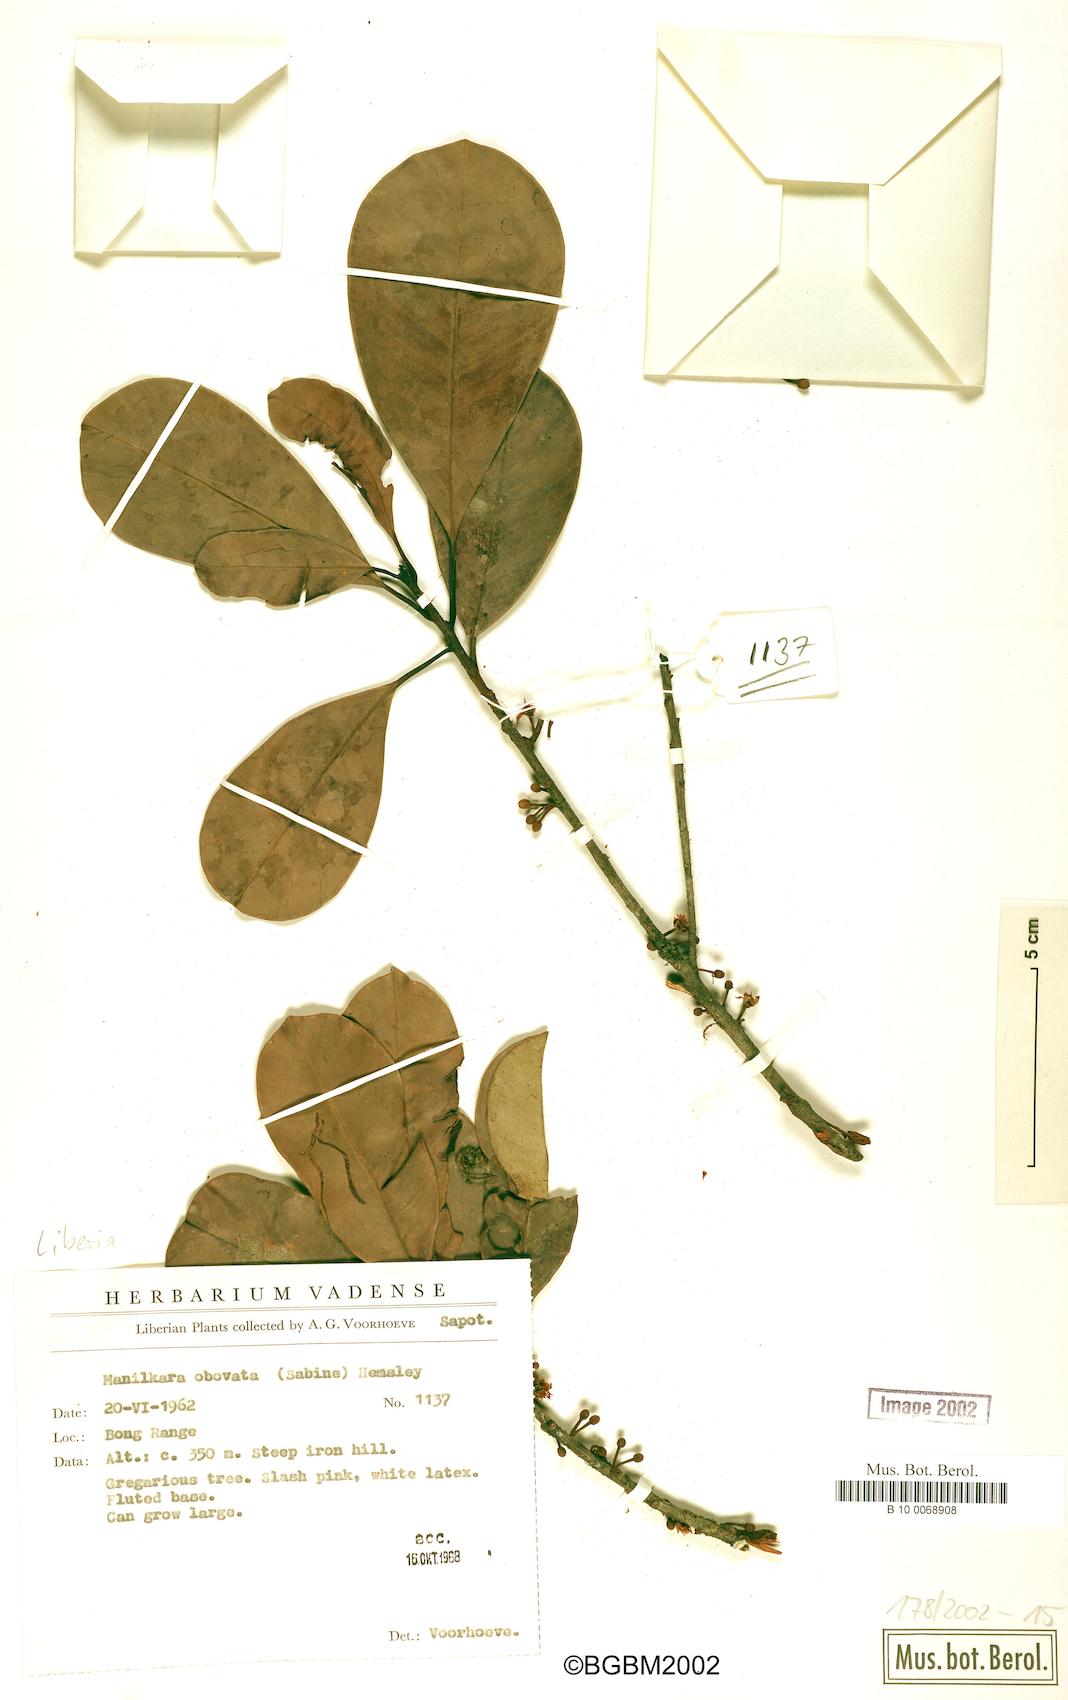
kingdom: Plantae
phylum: Tracheophyta
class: Magnoliopsida
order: Ericales
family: Sapotaceae
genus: Manilkara
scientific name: Manilkara obovata
